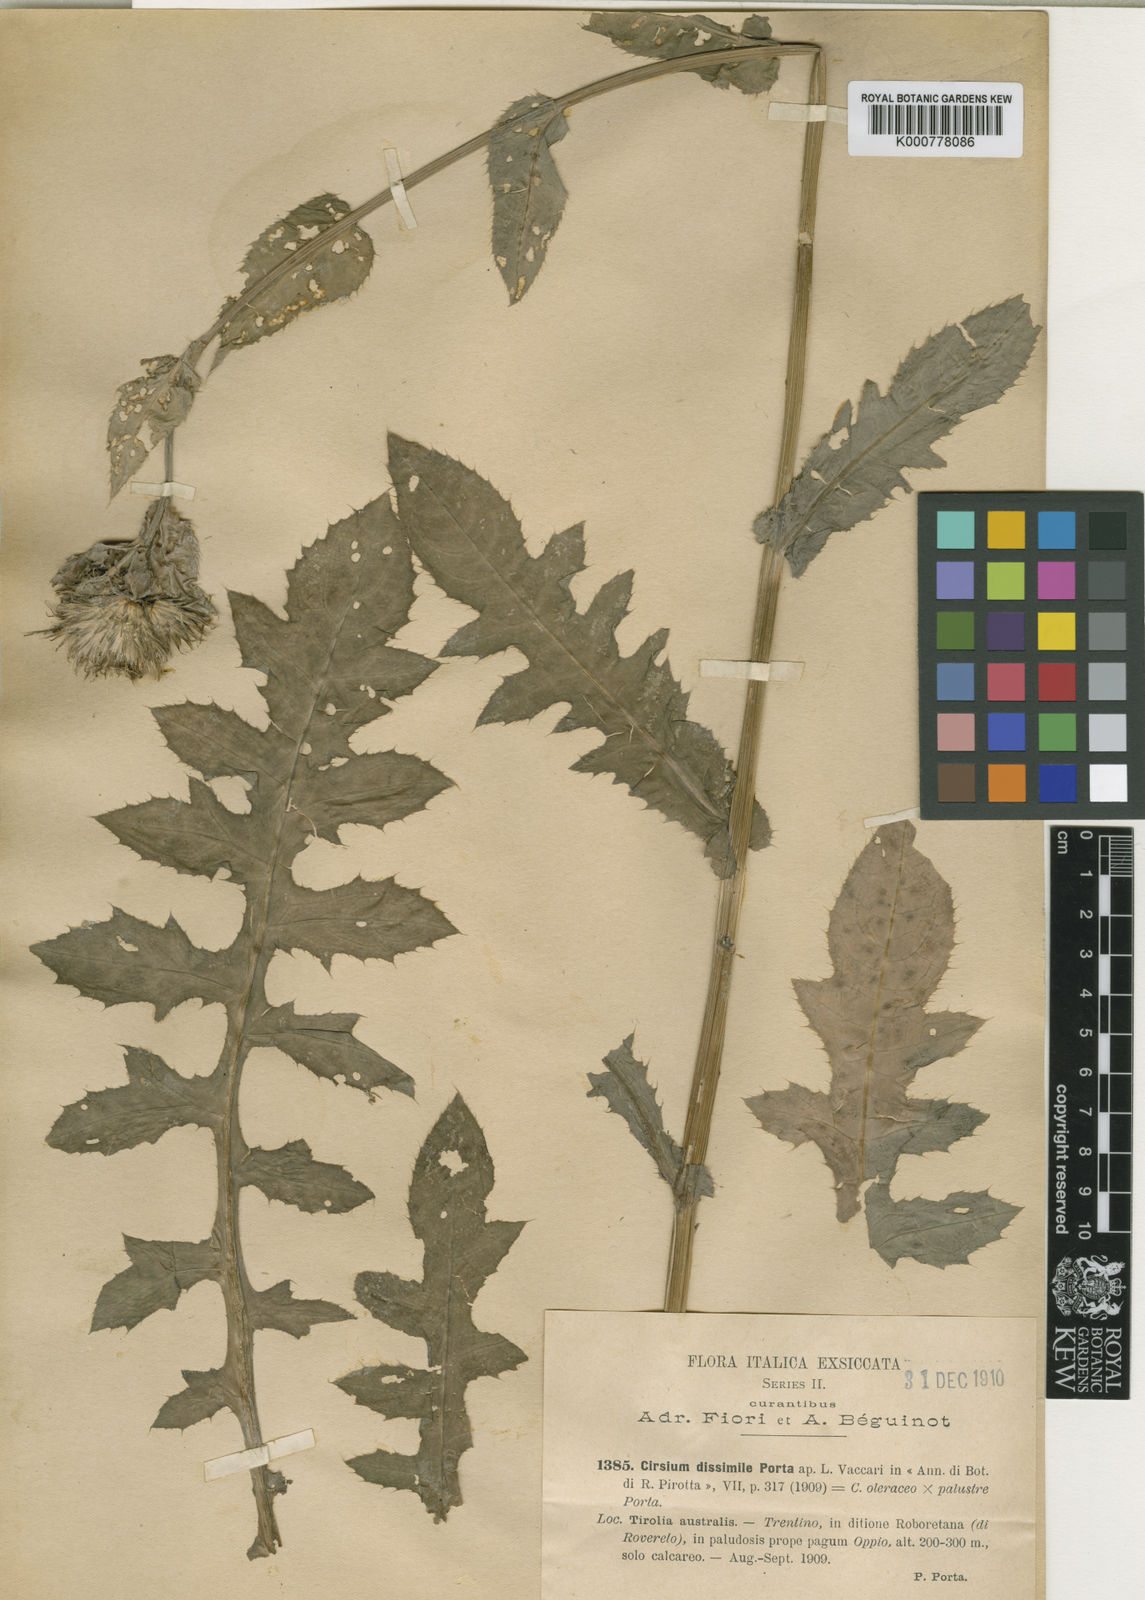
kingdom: Plantae
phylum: Tracheophyta
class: Magnoliopsida
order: Asterales
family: Asteraceae
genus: Cirsium
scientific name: Cirsium oleraceum
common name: Cabbage thistle
